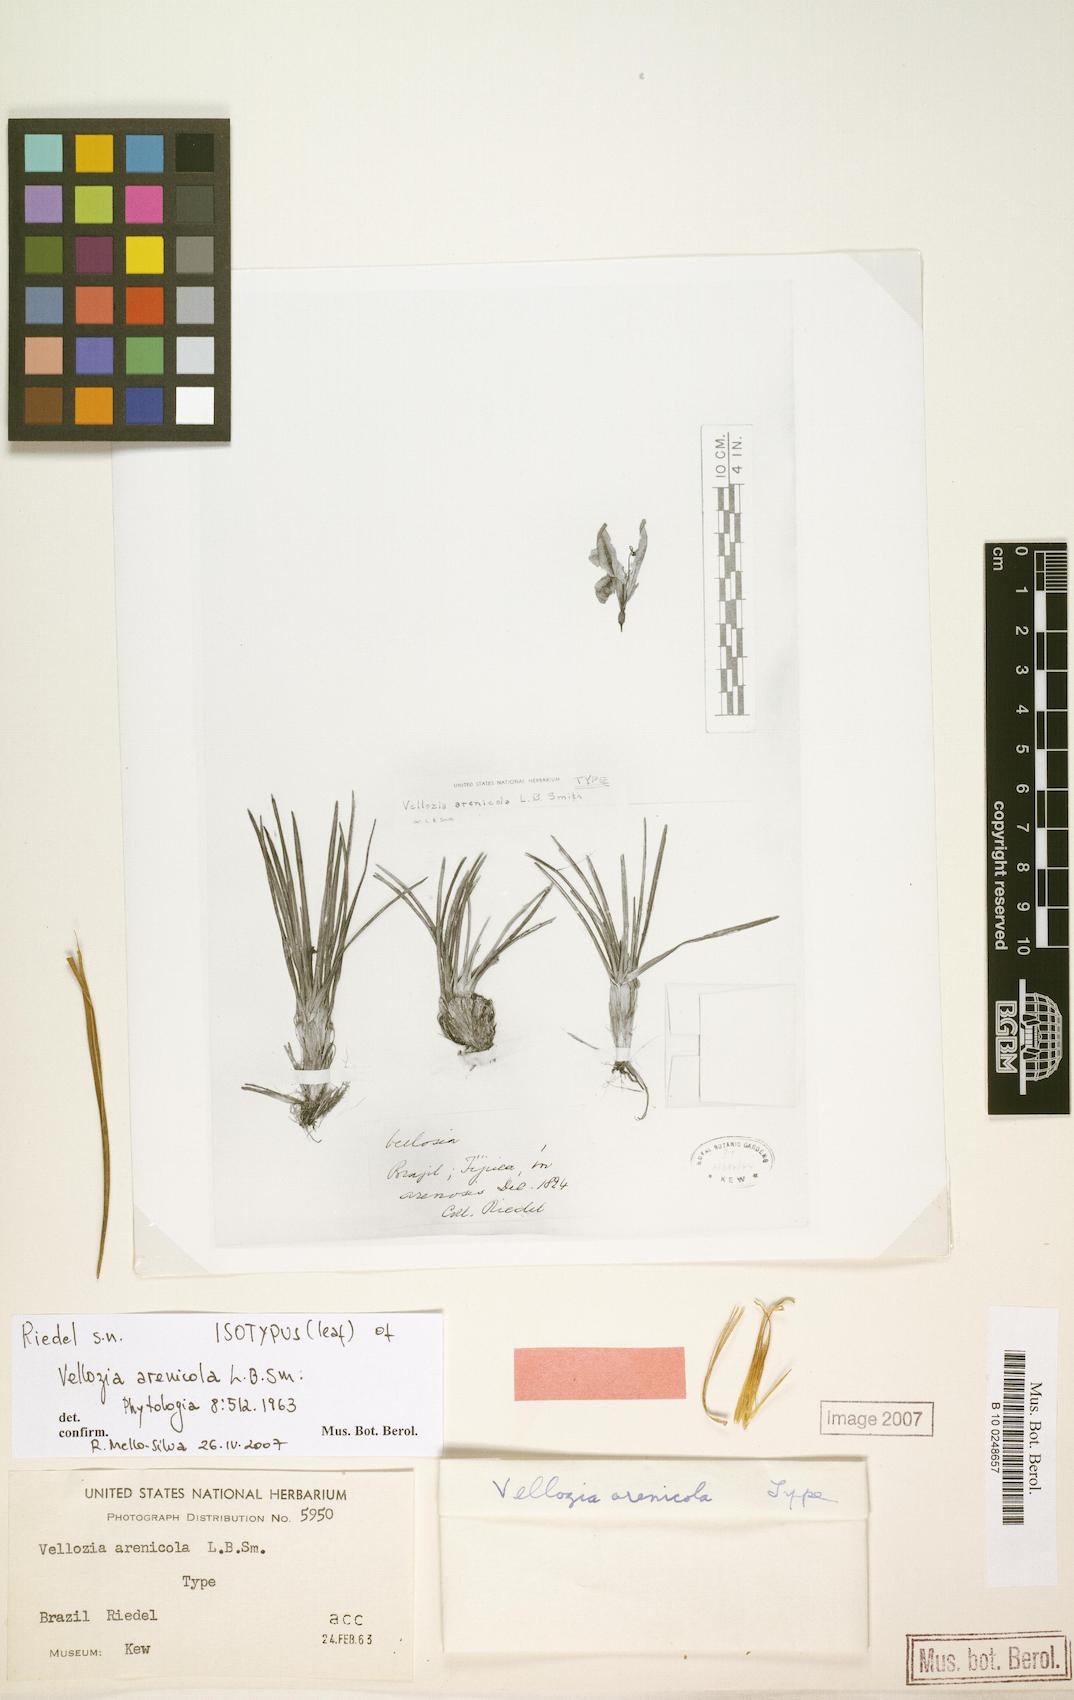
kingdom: Plantae
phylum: Tracheophyta
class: Liliopsida
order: Pandanales
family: Velloziaceae
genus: Vellozia
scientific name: Vellozia arenicola
